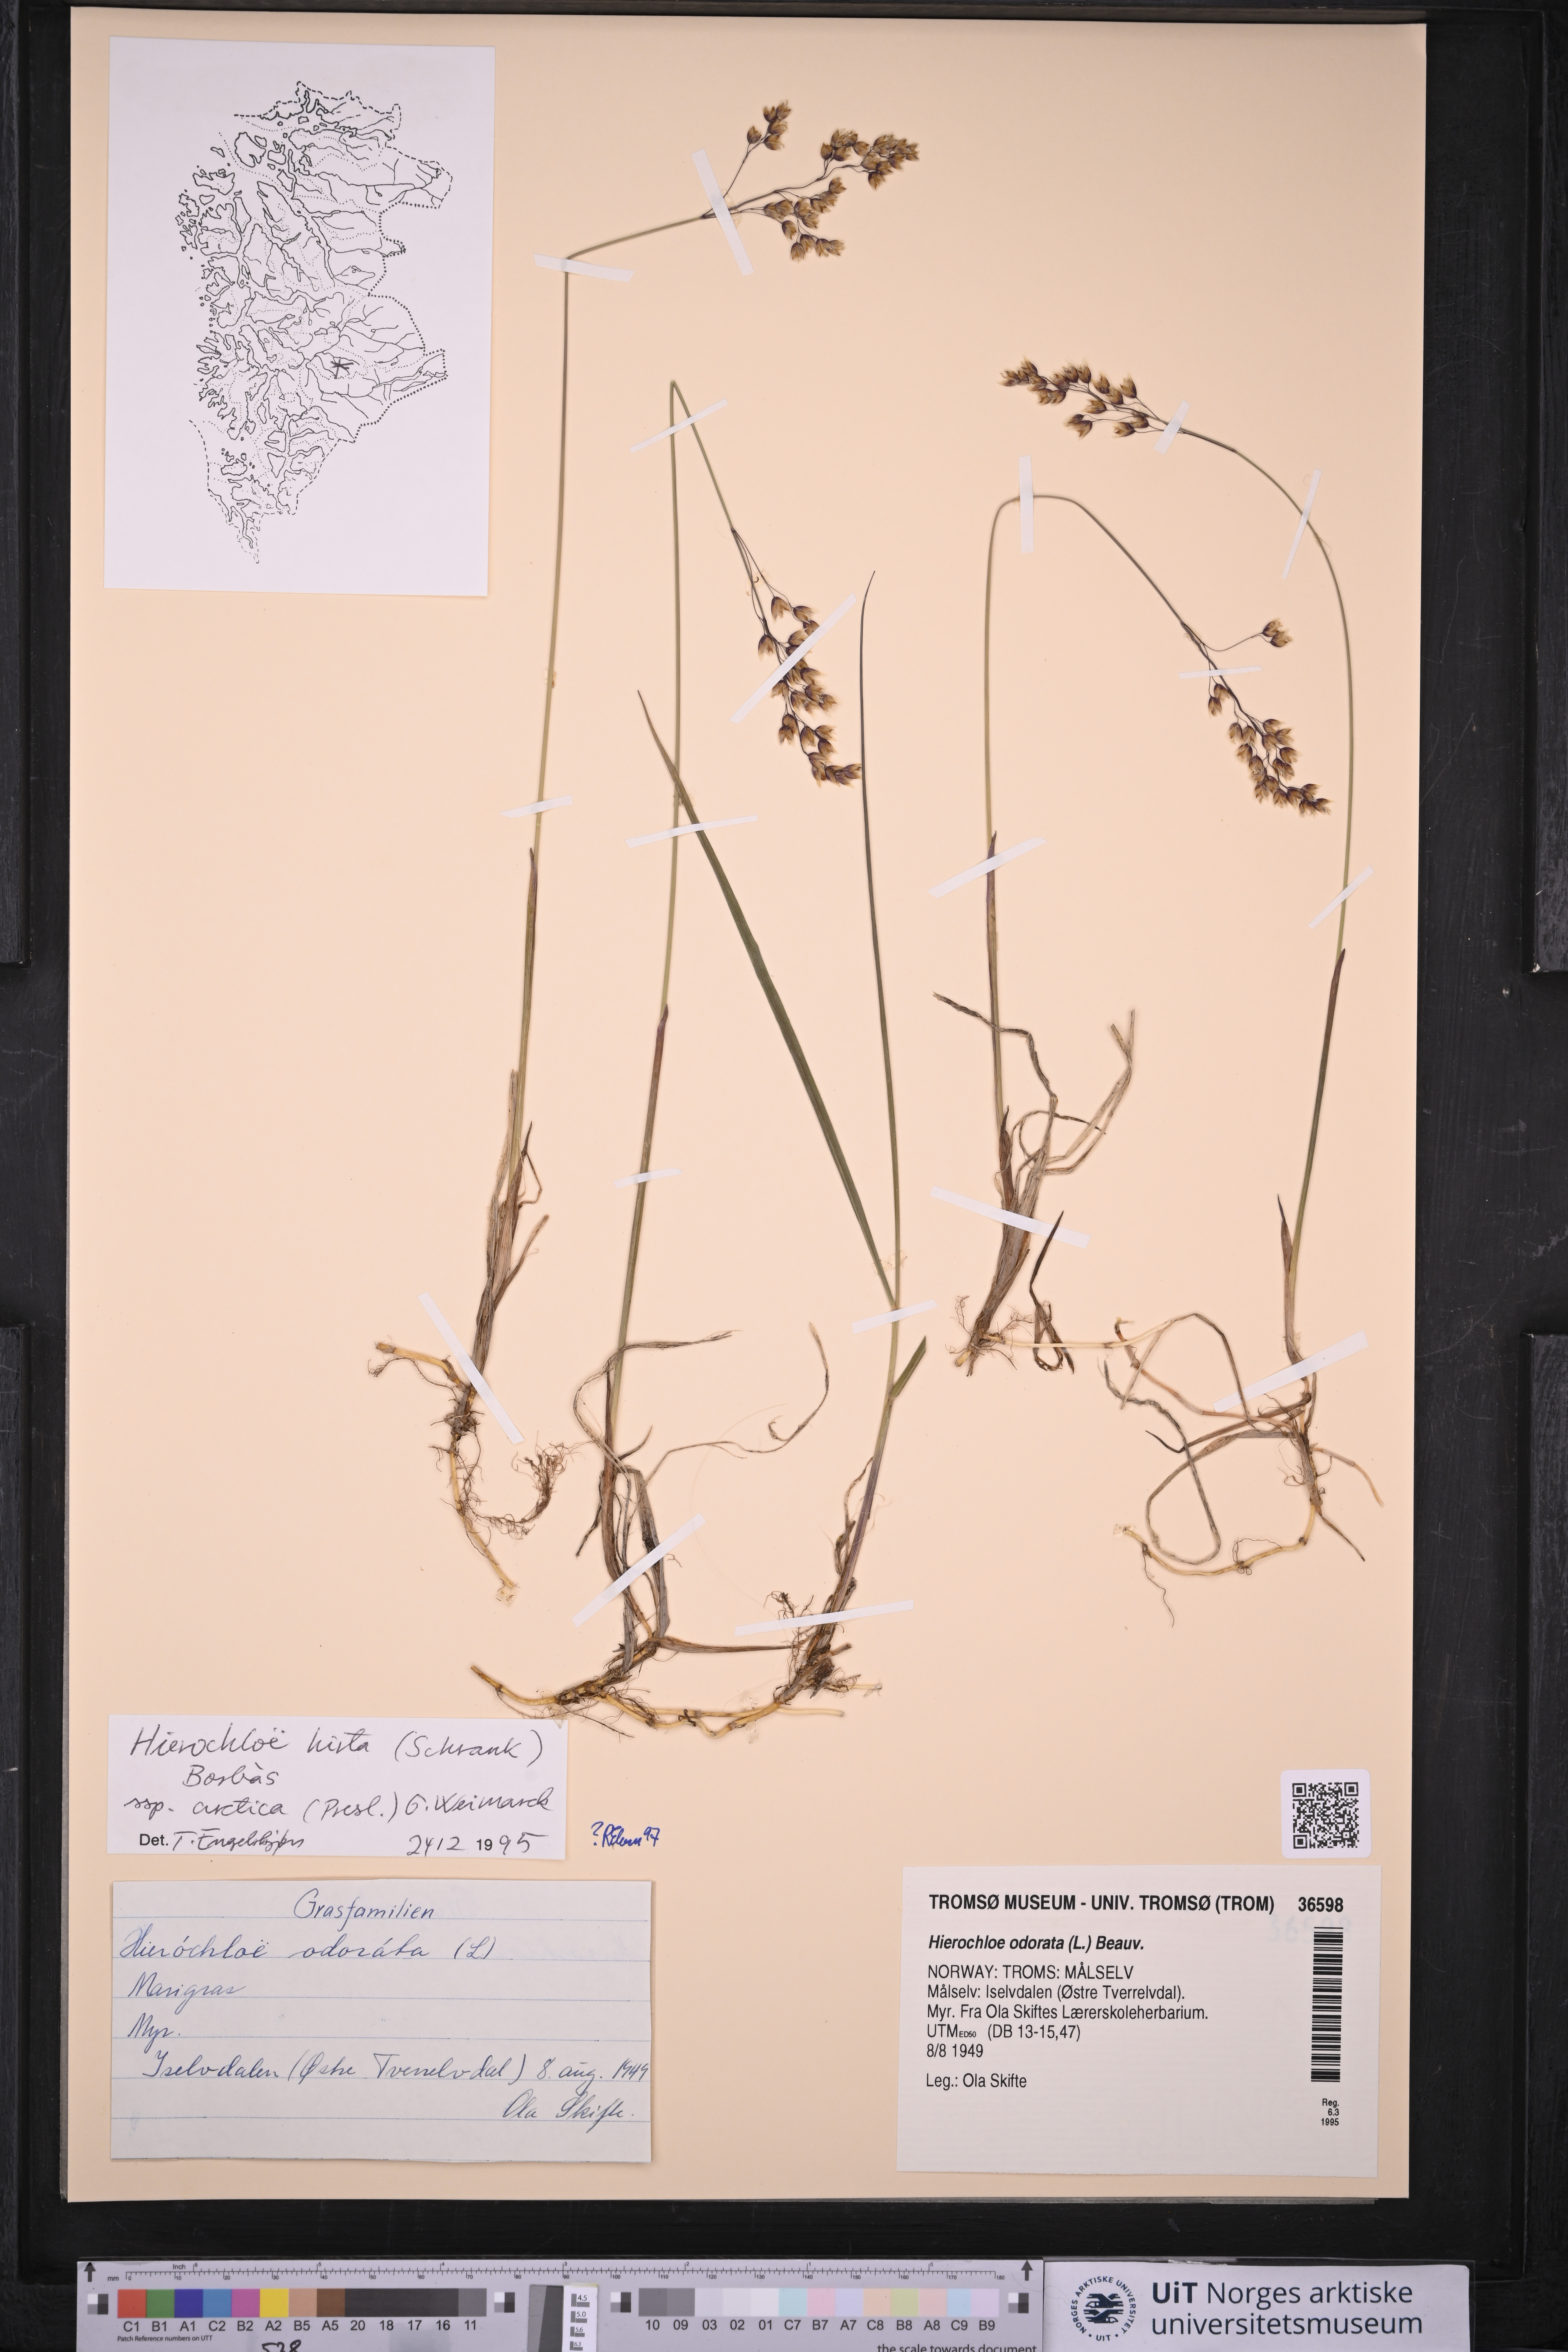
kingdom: Plantae
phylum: Tracheophyta
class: Liliopsida
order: Poales
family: Poaceae
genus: Anthoxanthum
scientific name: Anthoxanthum nitens
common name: Holy grass
